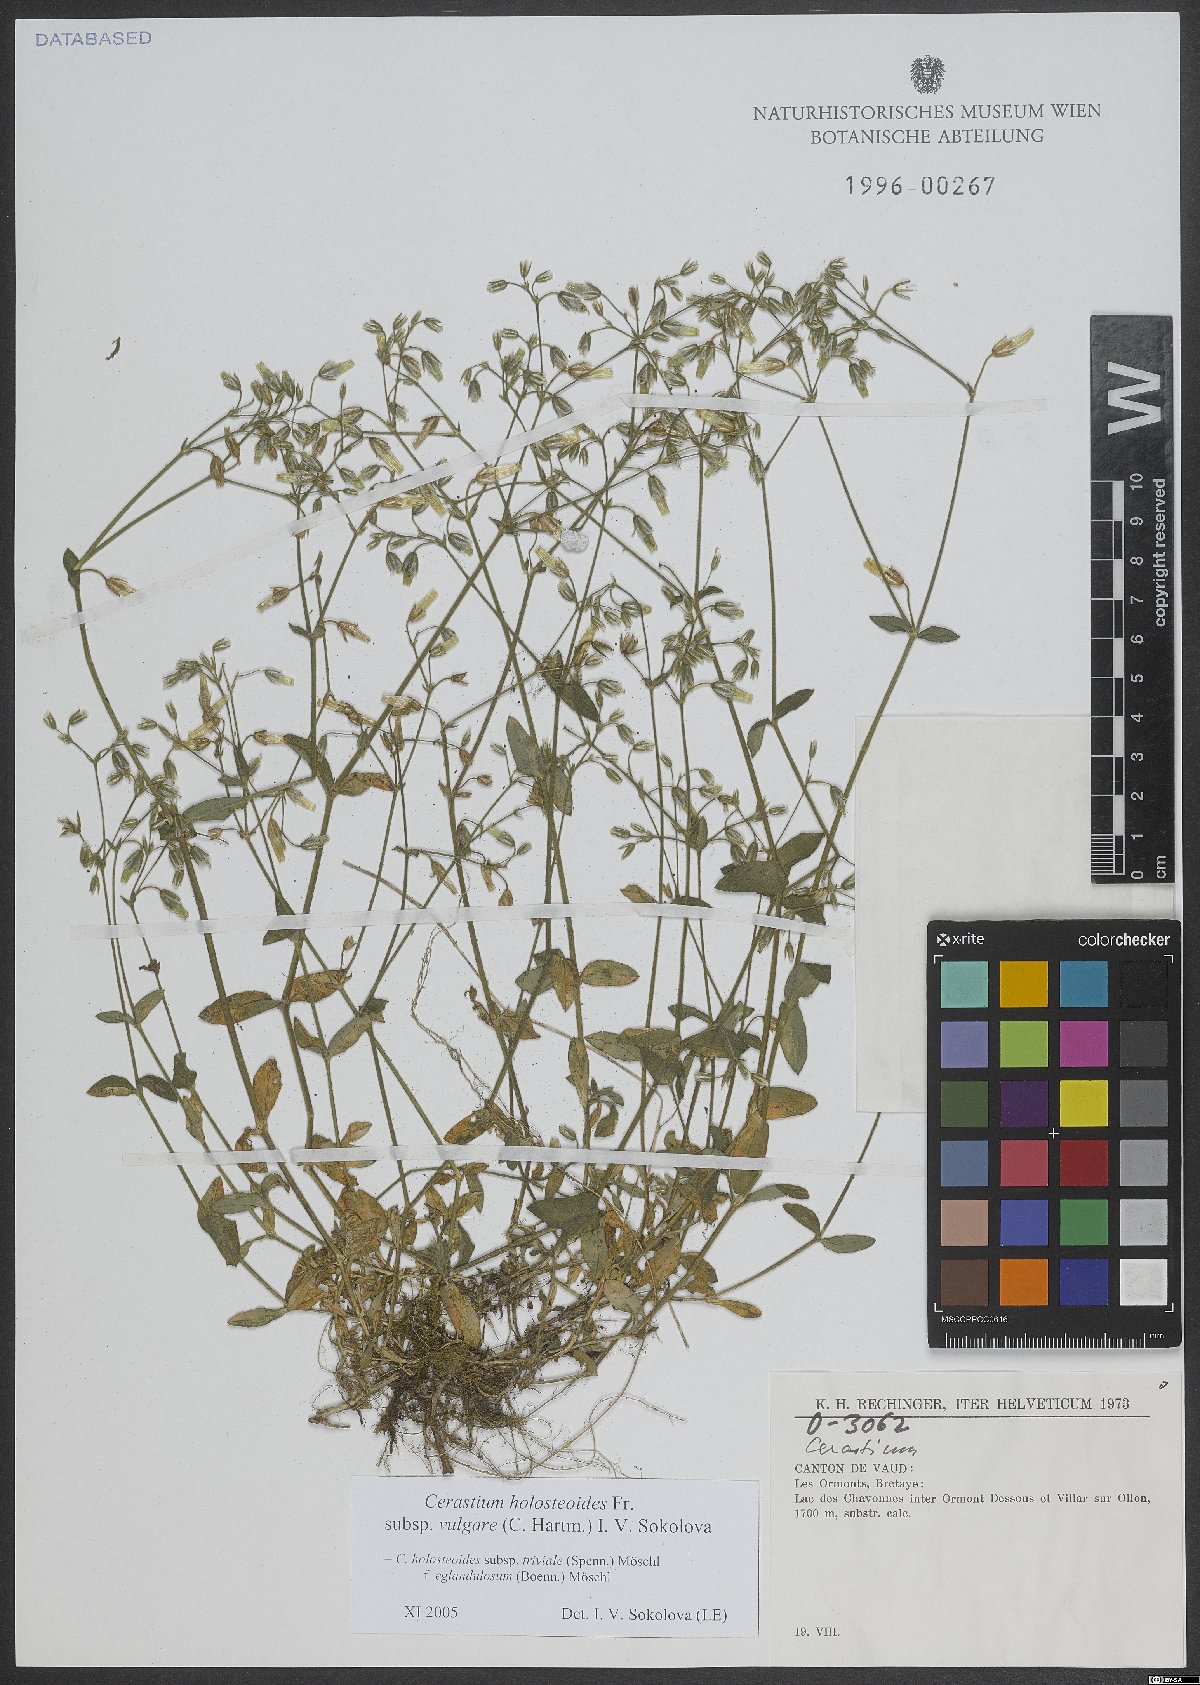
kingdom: Plantae
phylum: Tracheophyta
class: Magnoliopsida
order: Caryophyllales
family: Caryophyllaceae
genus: Cerastium
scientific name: Cerastium holosteoides
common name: Big chickweed
